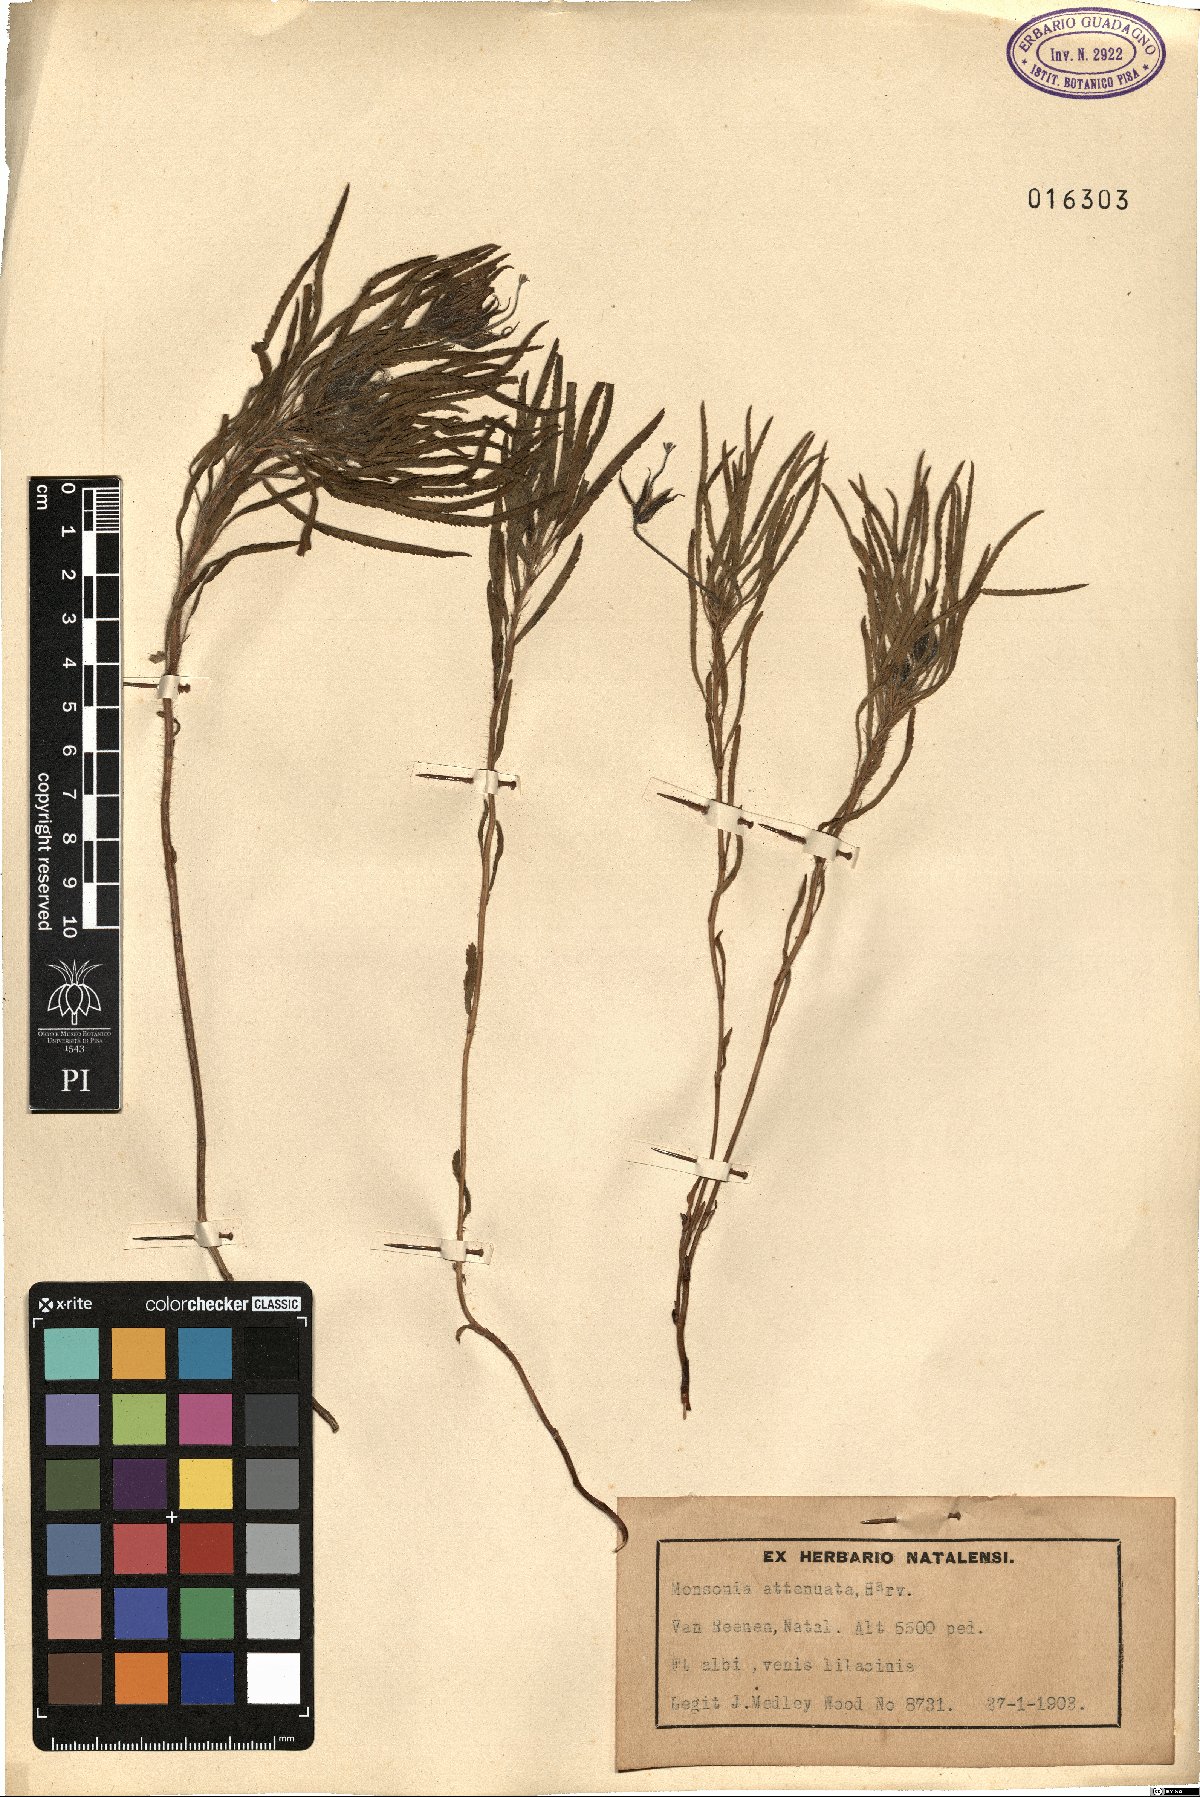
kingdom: Plantae
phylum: Tracheophyta
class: Magnoliopsida
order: Geraniales
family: Geraniaceae
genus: Monsonia
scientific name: Monsonia attenuata
